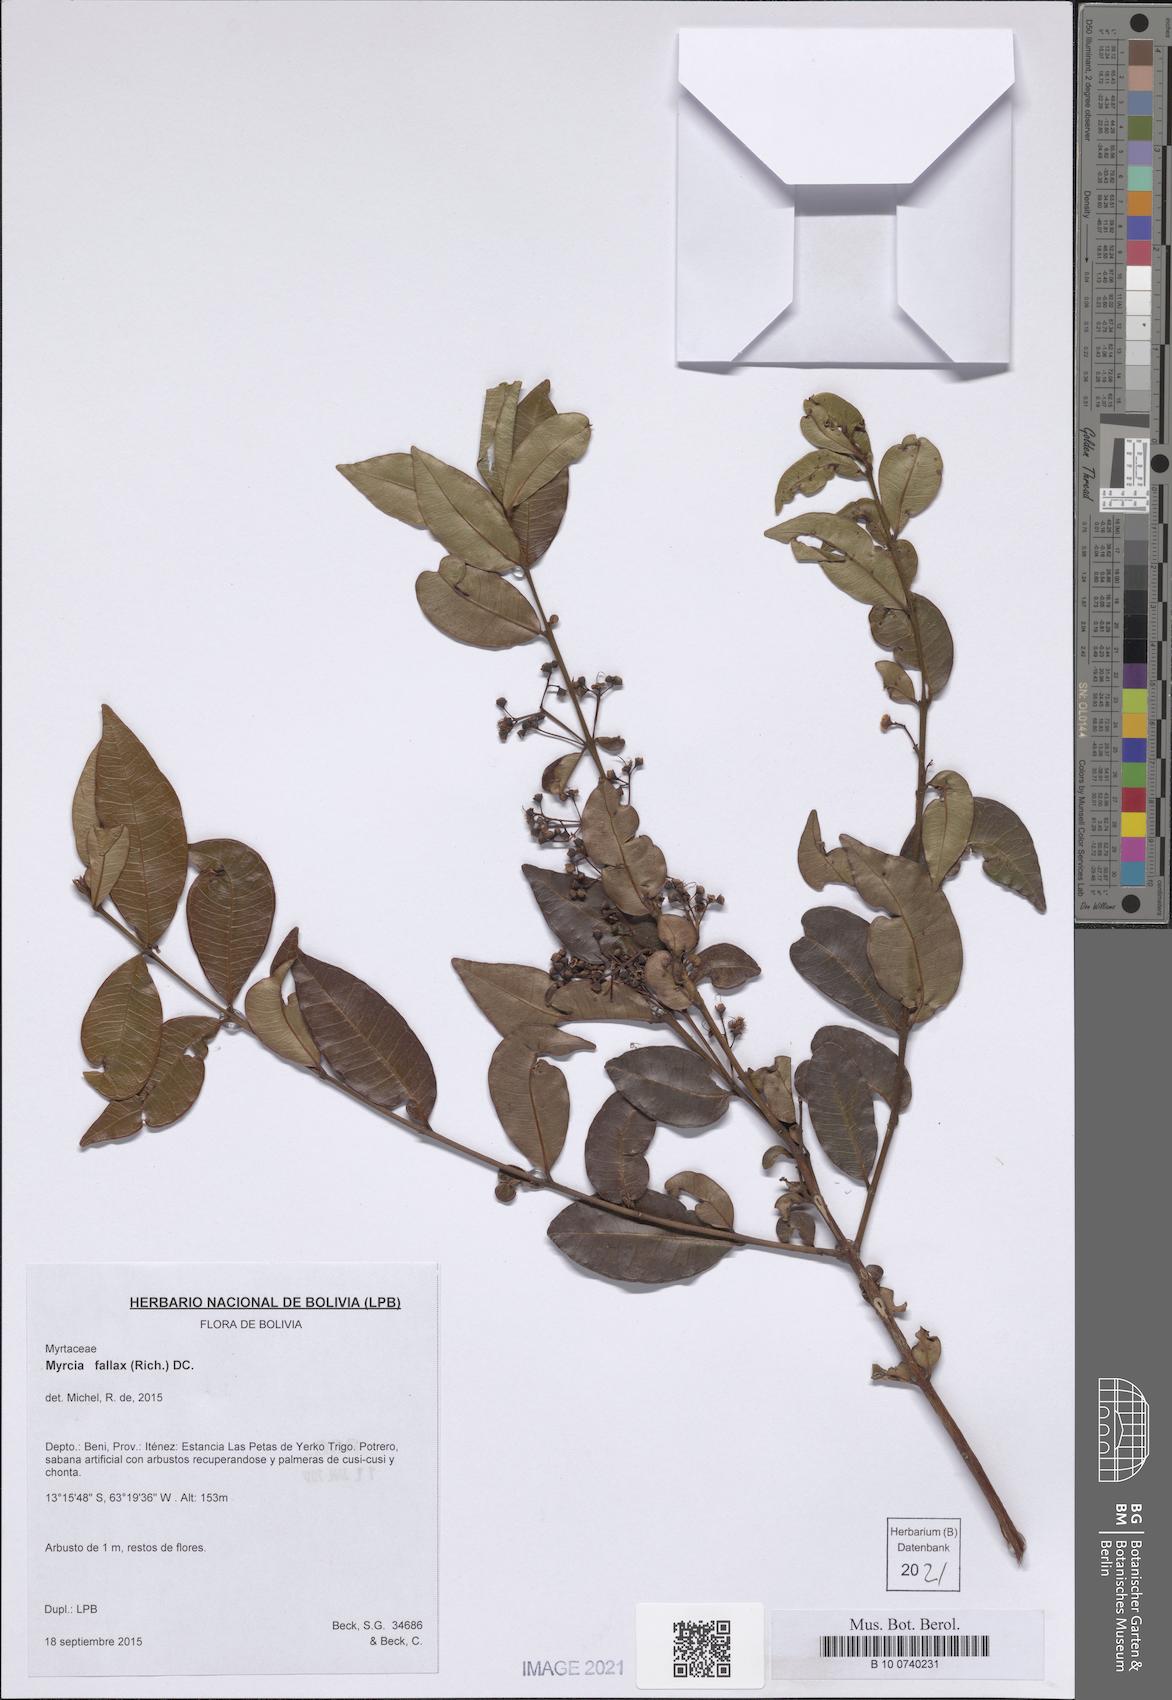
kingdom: Plantae
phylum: Tracheophyta
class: Magnoliopsida
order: Myrtales
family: Myrtaceae
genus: Myrcia
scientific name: Myrcia splendens
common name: Surinam cherry
